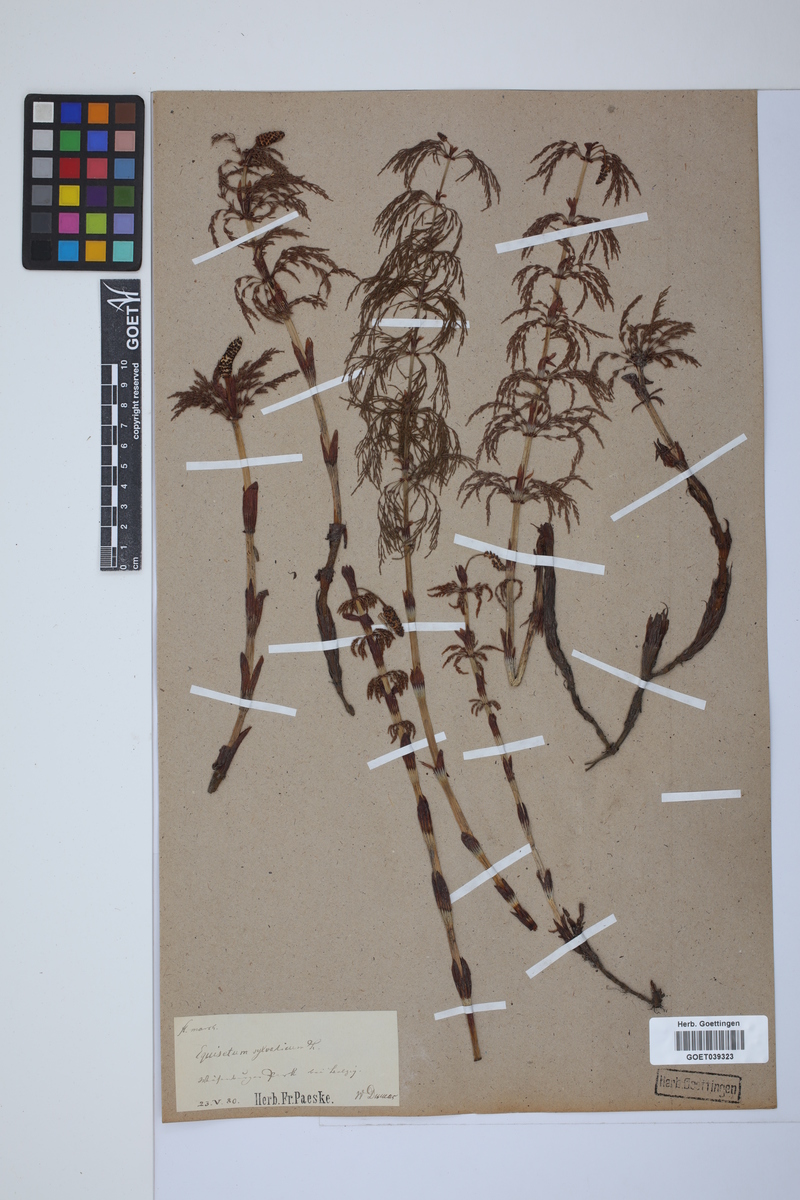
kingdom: Plantae
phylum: Tracheophyta
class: Polypodiopsida
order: Equisetales
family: Equisetaceae
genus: Equisetum
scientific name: Equisetum sylvaticum
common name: Wood horsetail
